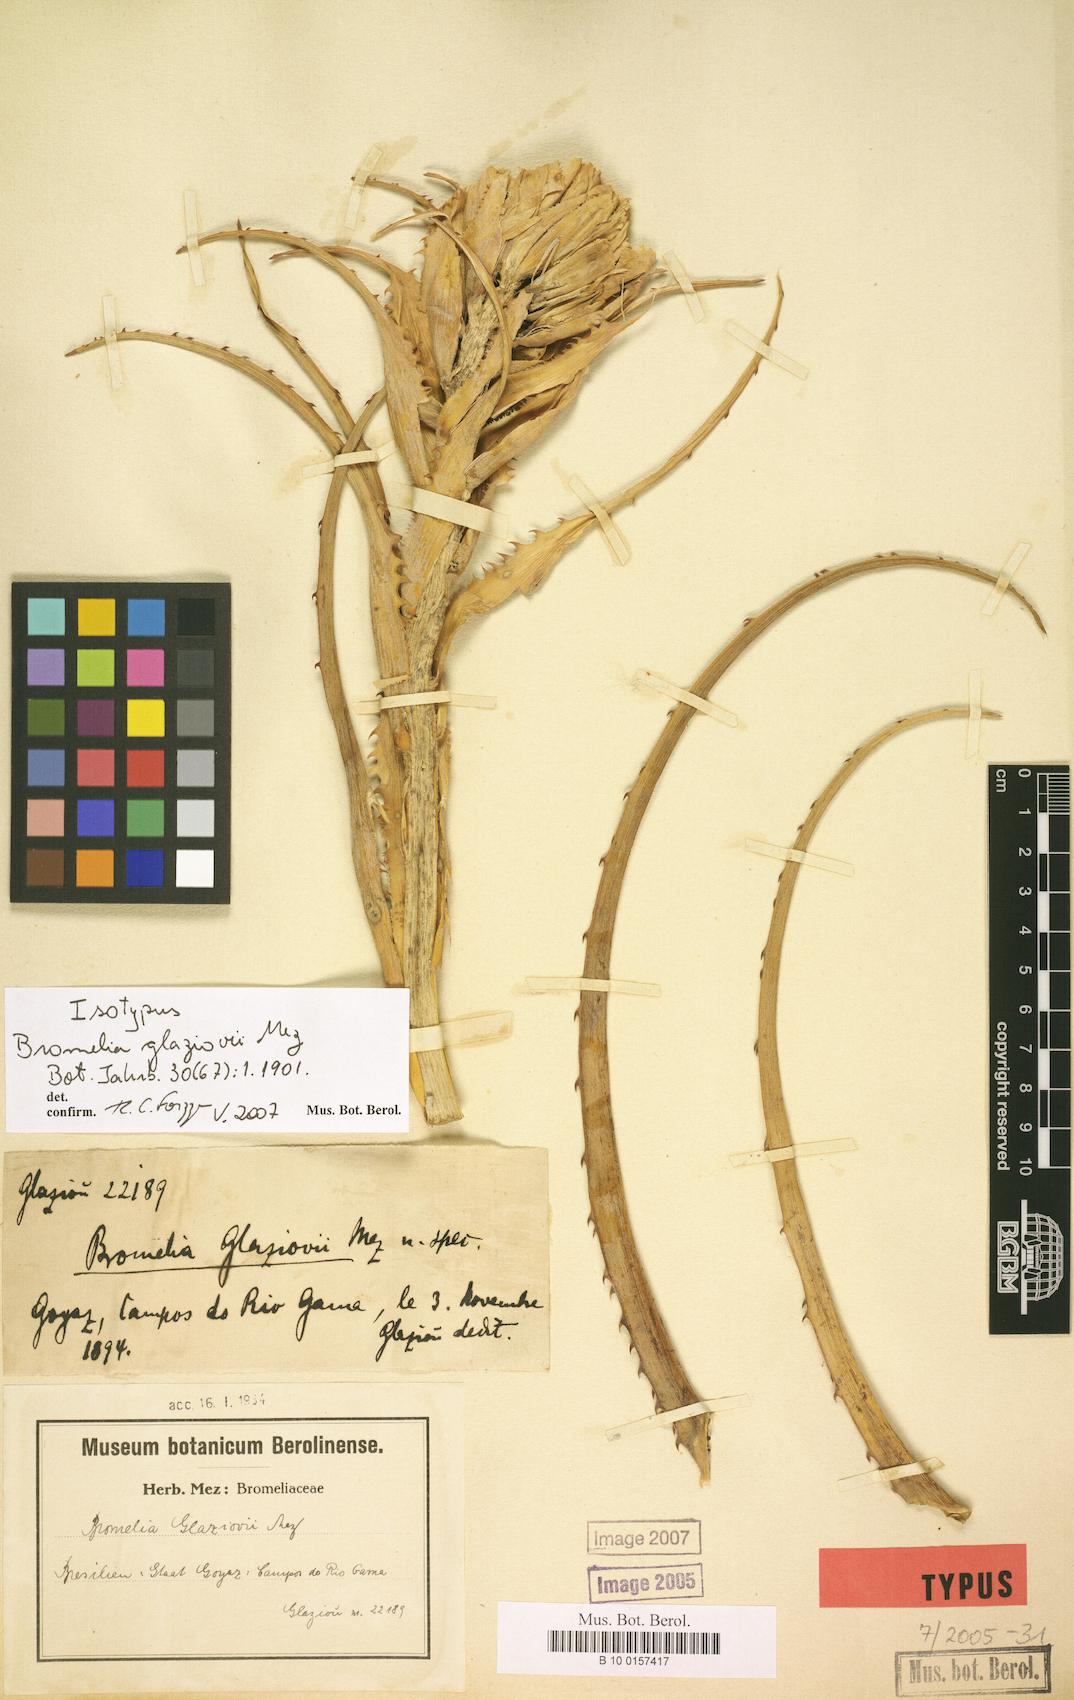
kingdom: Plantae
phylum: Tracheophyta
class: Liliopsida
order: Poales
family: Bromeliaceae
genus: Bromelia
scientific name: Bromelia glaziovii
